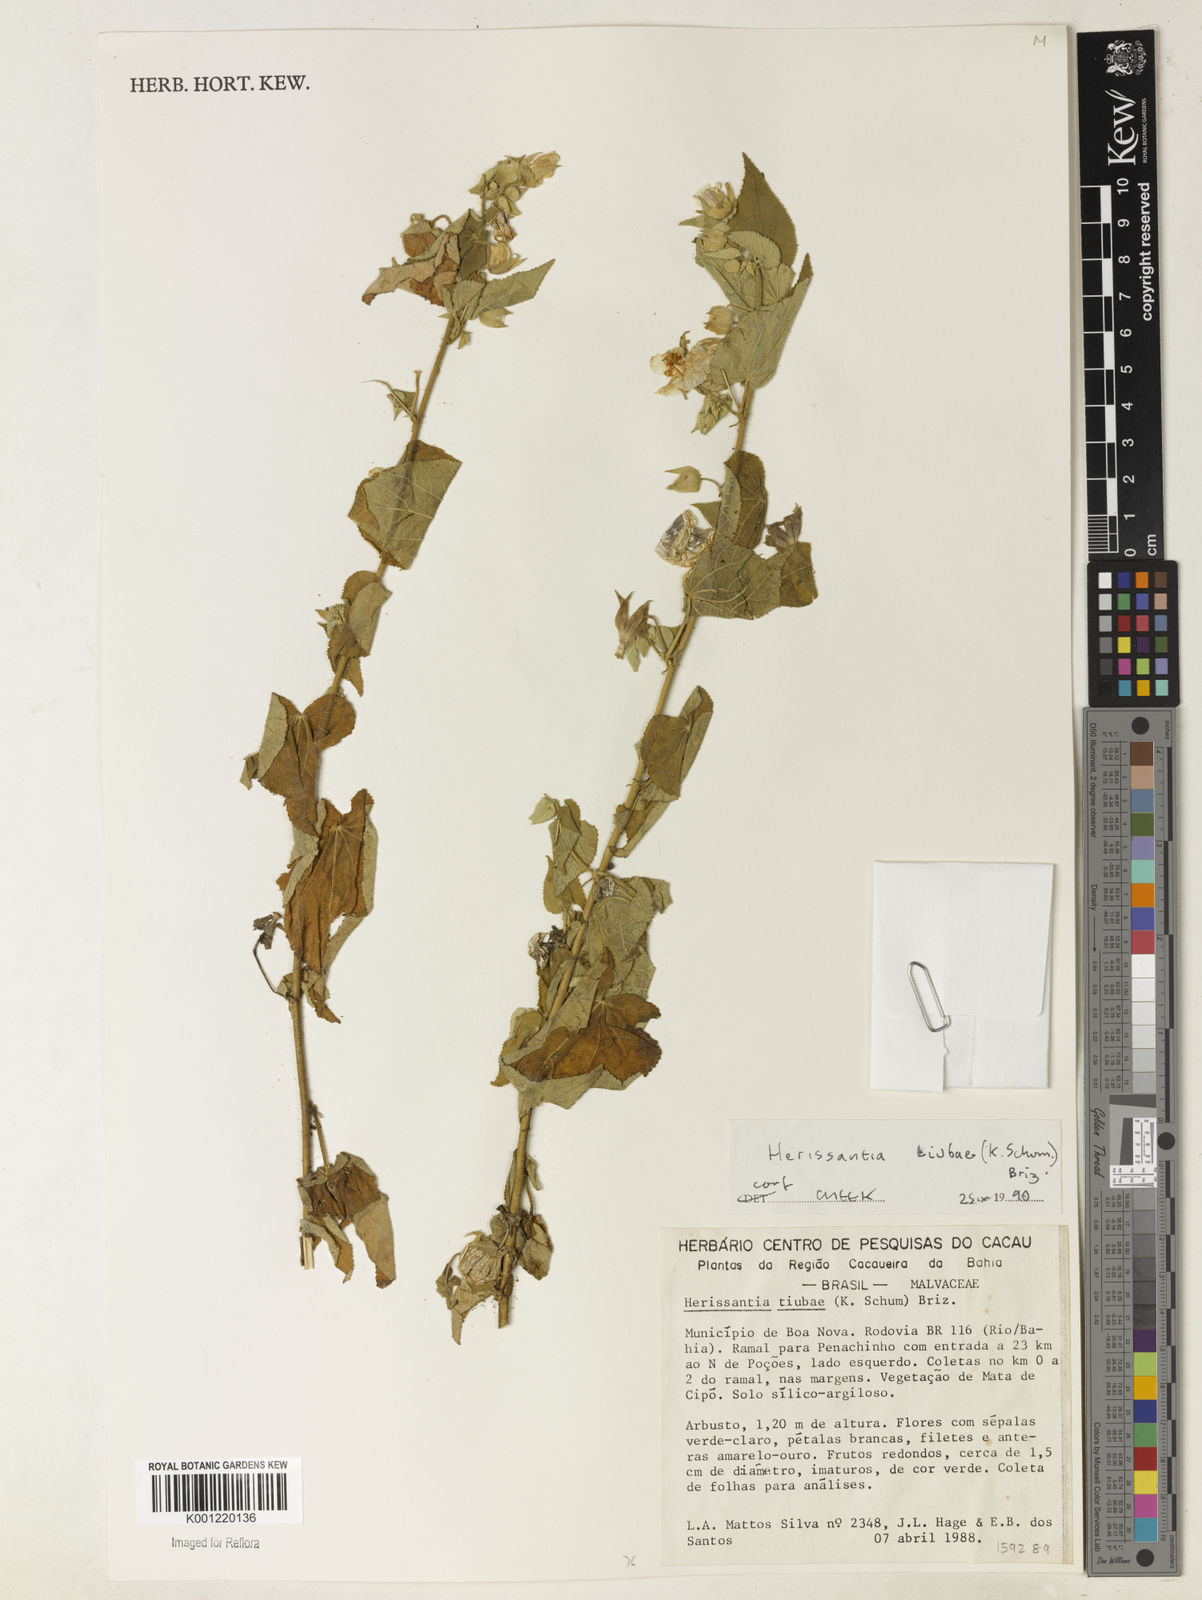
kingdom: Plantae
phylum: Tracheophyta
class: Magnoliopsida
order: Malvales
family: Malvaceae
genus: Herissantia
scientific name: Herissantia tiubae
